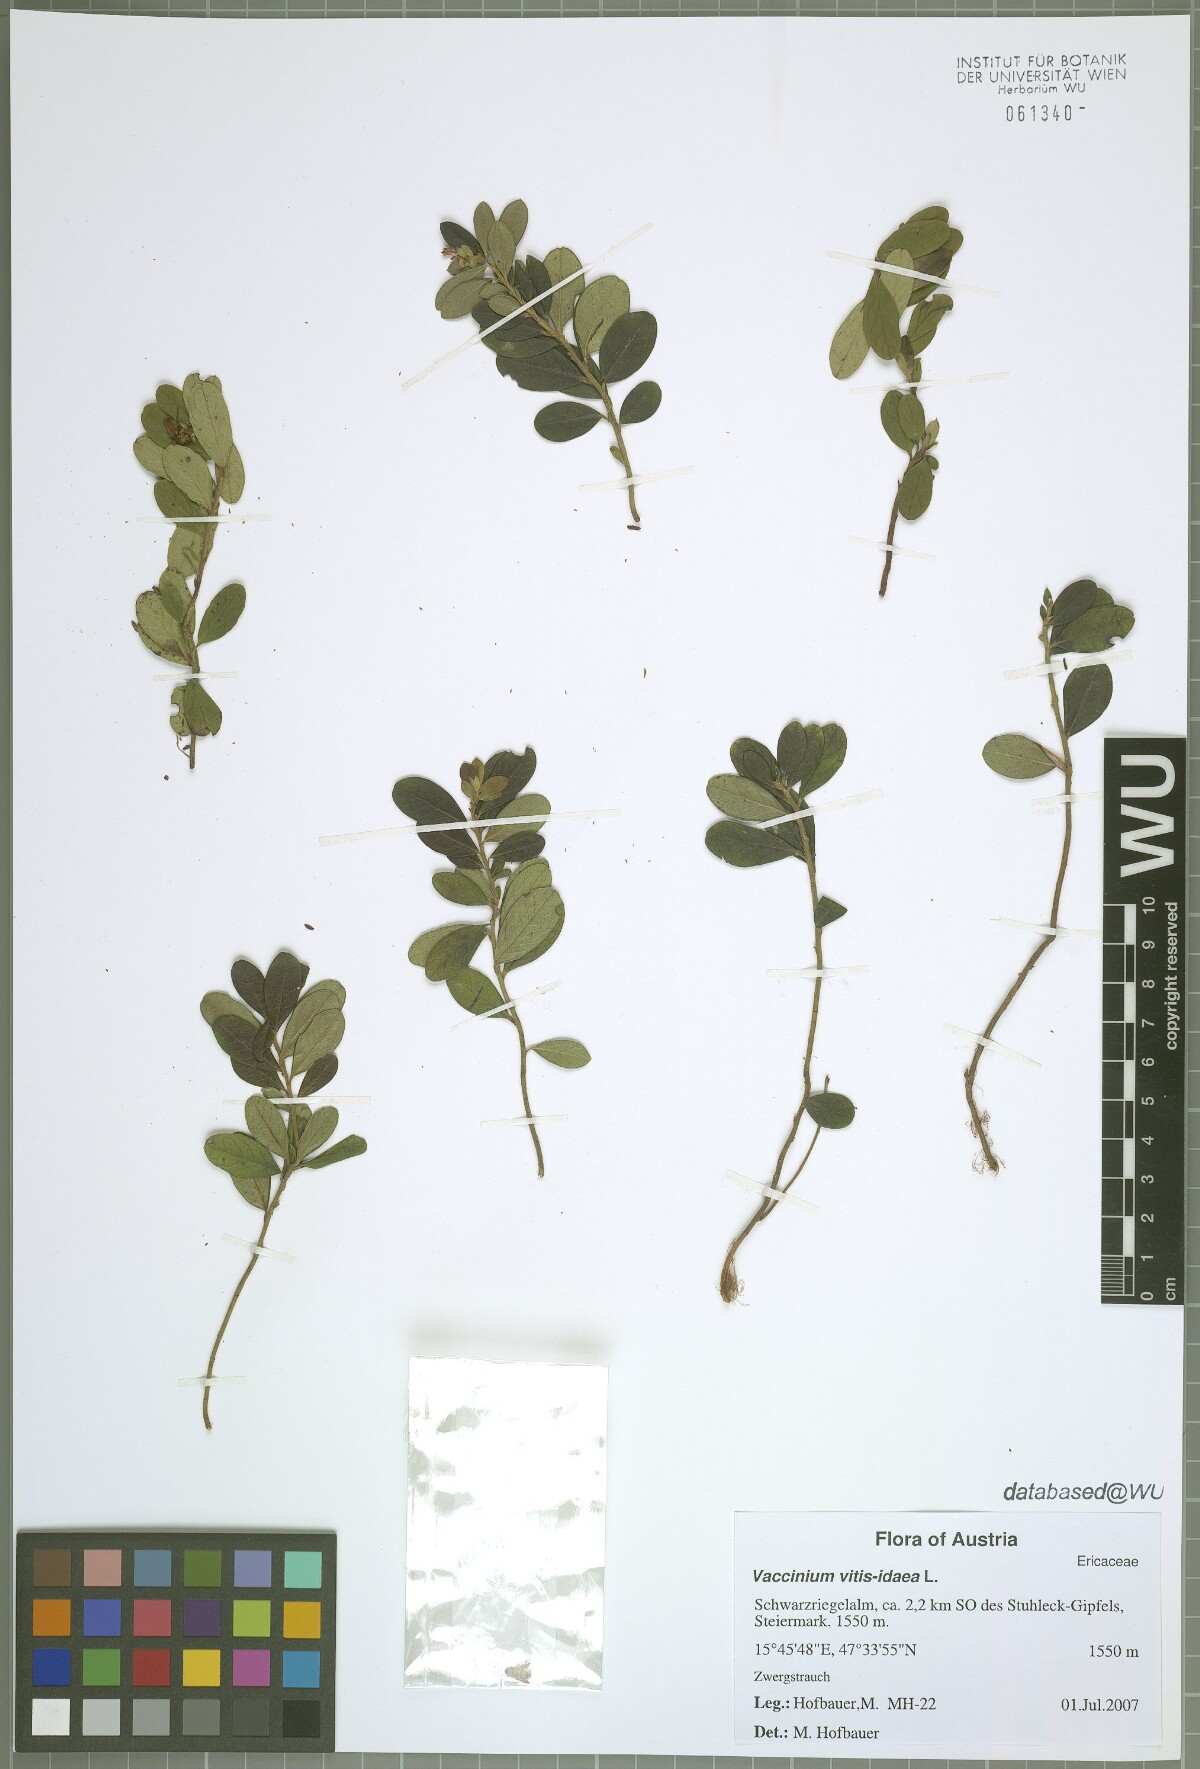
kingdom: Plantae
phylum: Tracheophyta
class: Magnoliopsida
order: Ericales
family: Ericaceae
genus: Vaccinium
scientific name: Vaccinium vitis-idaea
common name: Cowberry
